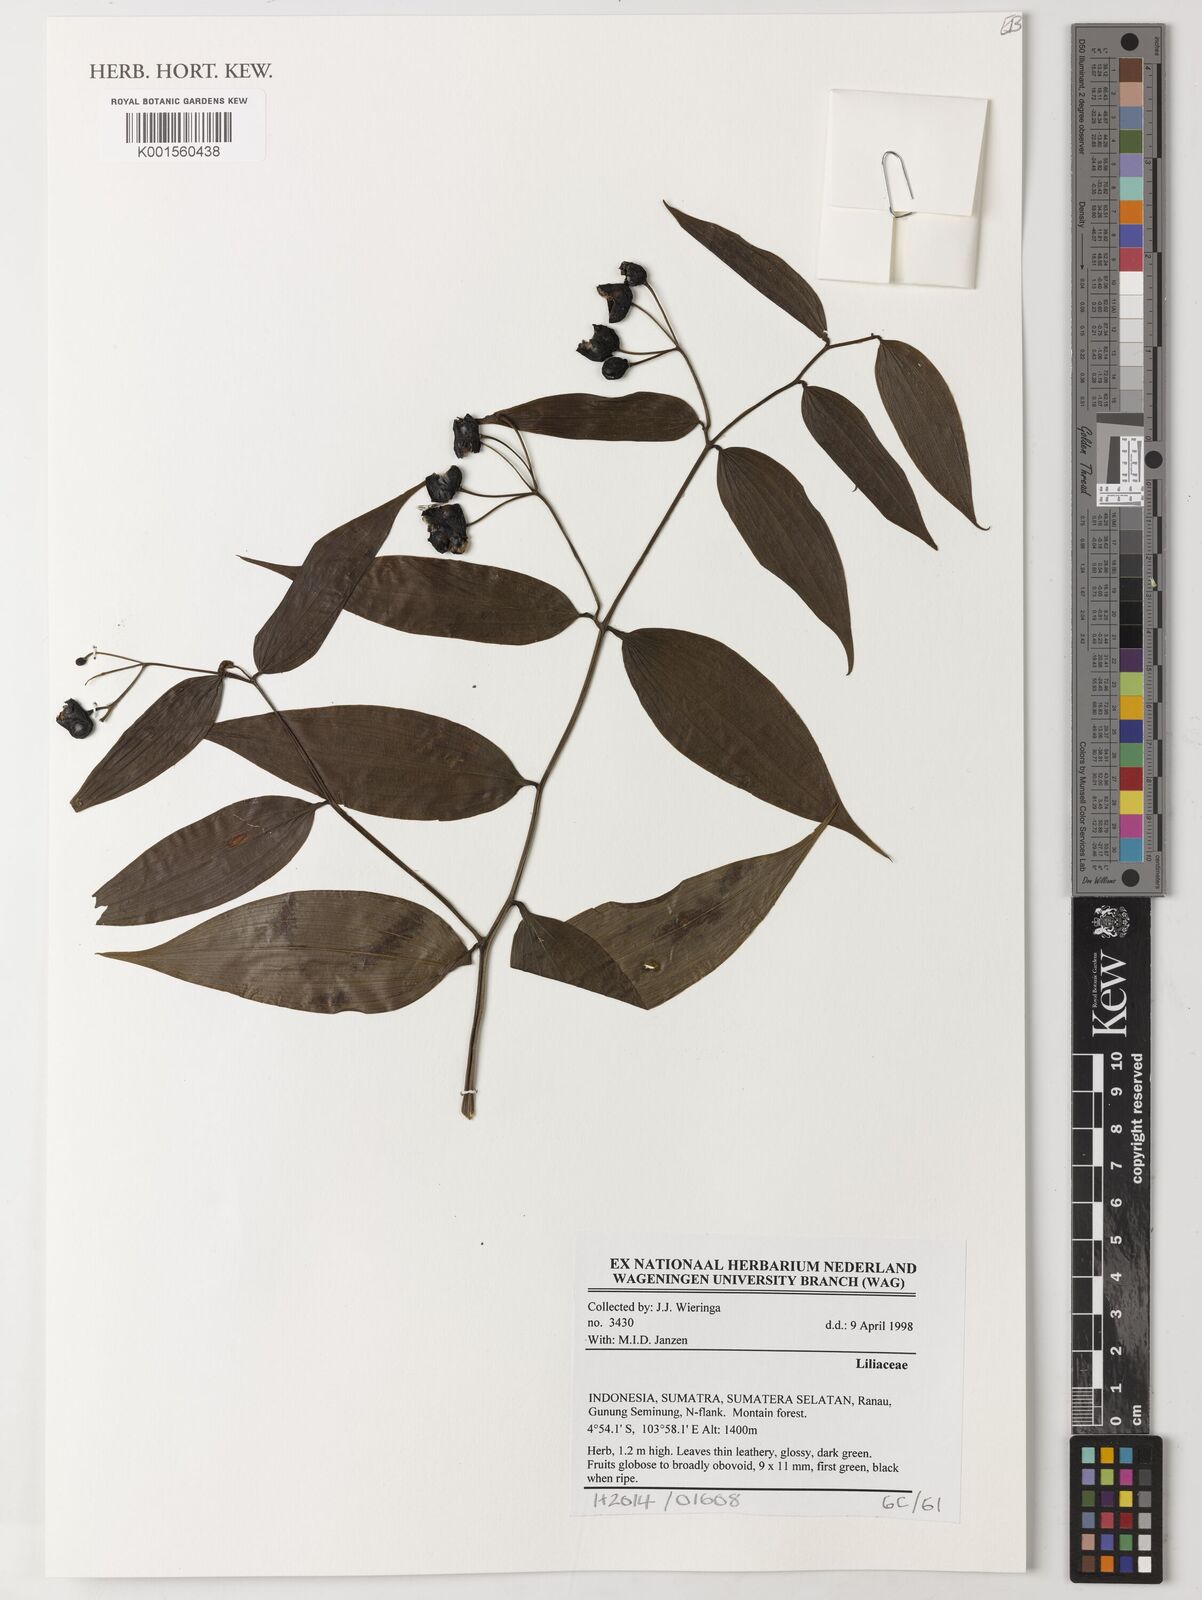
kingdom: Plantae
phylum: Tracheophyta
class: Liliopsida
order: Liliales
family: Liliaceae
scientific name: Liliaceae
